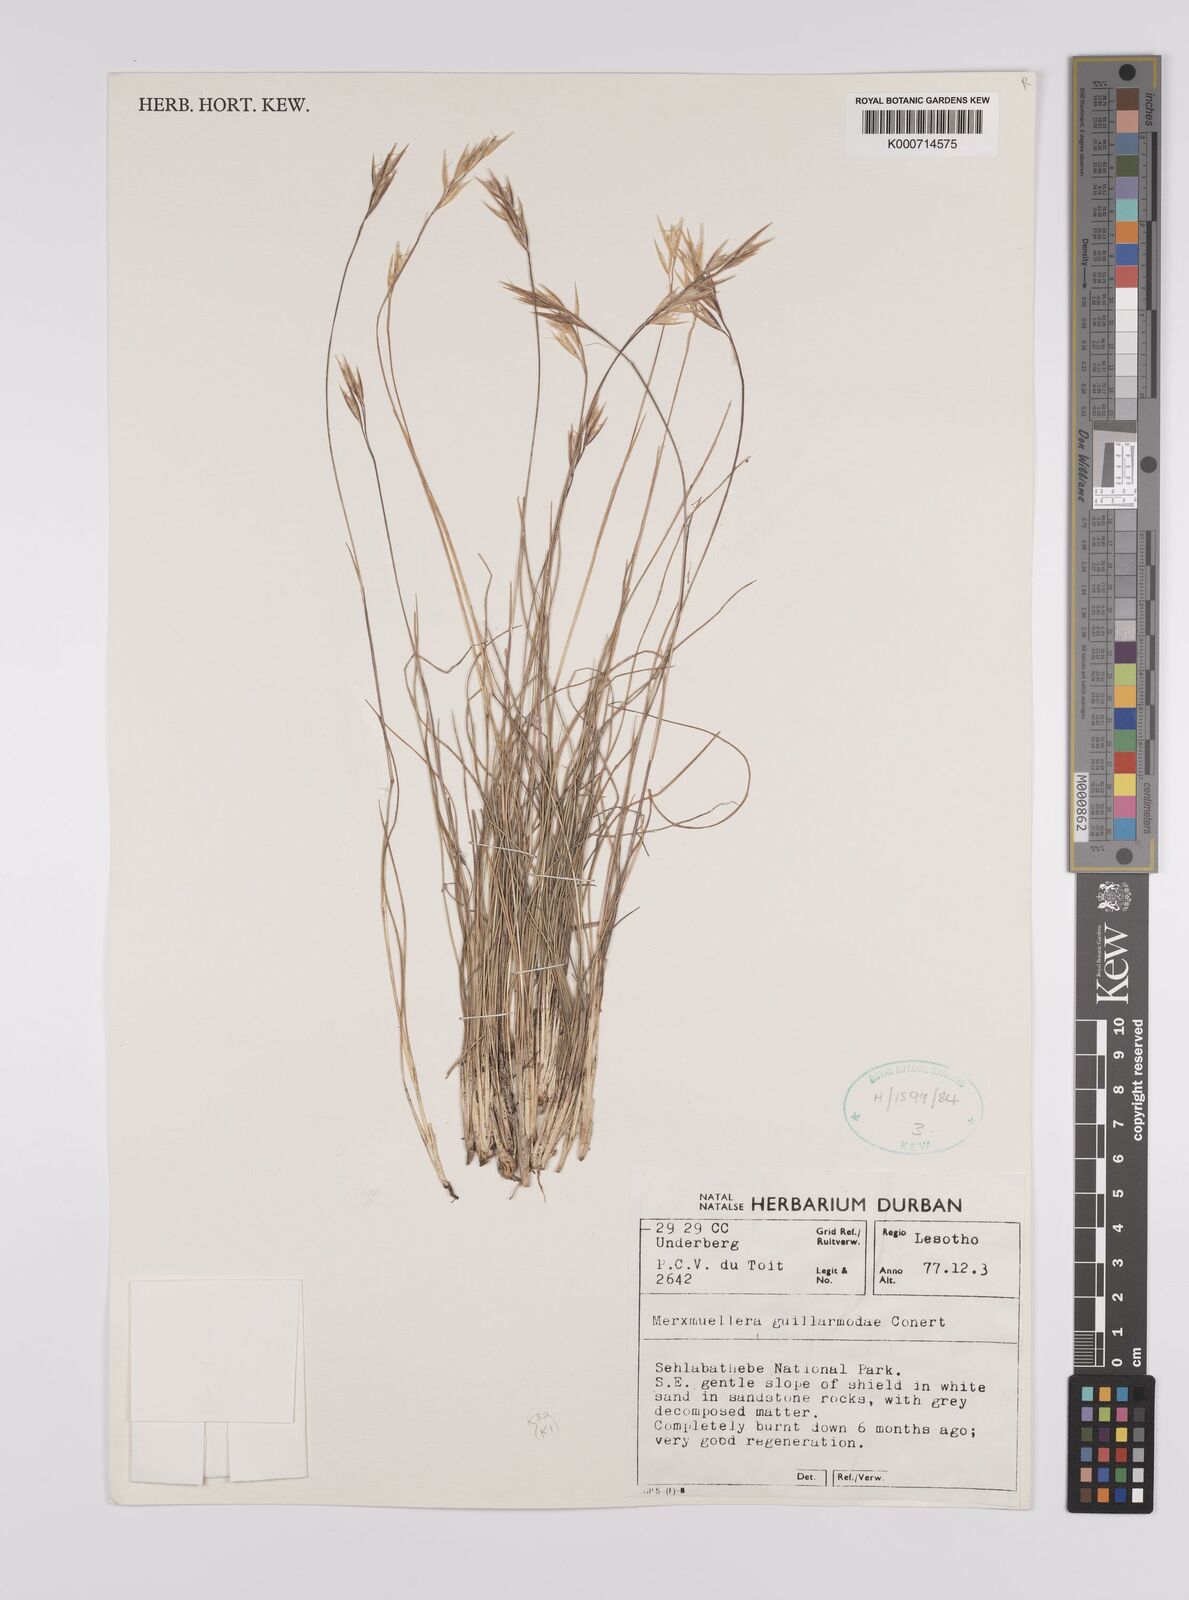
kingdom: Plantae
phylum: Tracheophyta
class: Liliopsida
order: Poales
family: Poaceae
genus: Rytidosperma
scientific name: Rytidosperma
